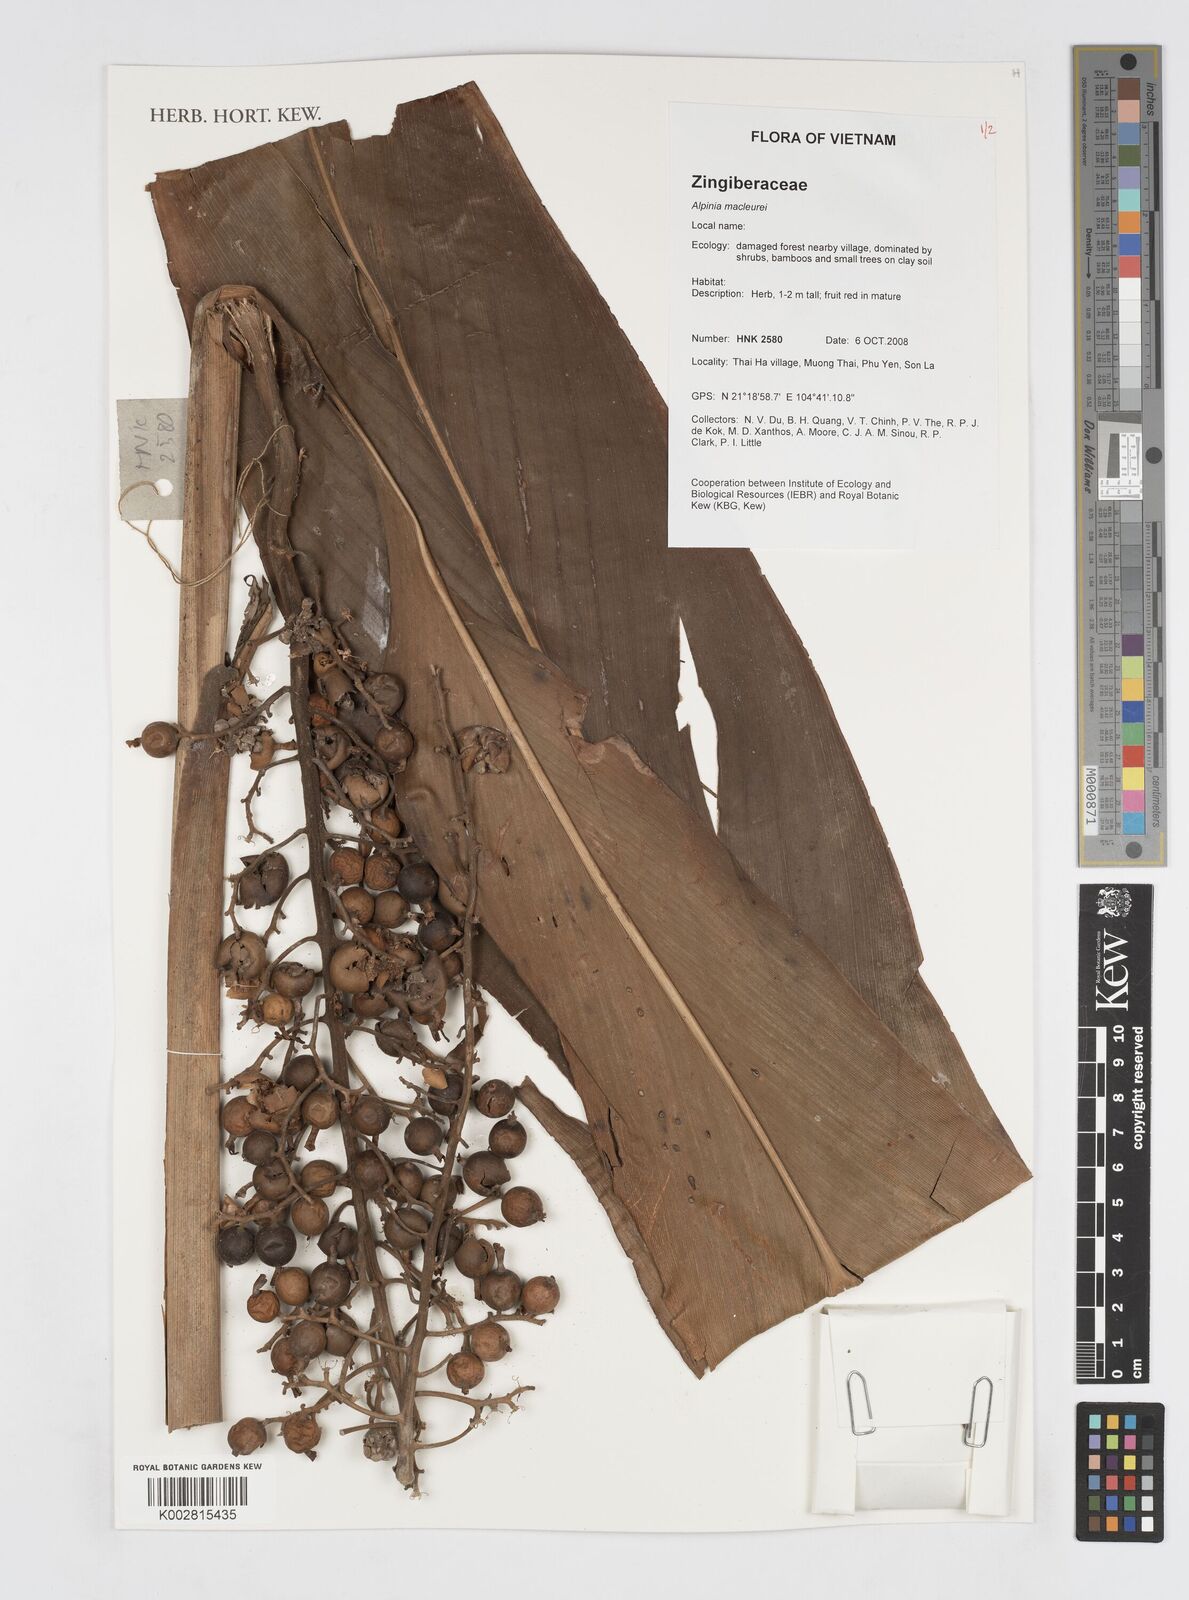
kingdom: Plantae
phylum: Tracheophyta
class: Liliopsida
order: Zingiberales
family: Zingiberaceae
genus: Alpinia
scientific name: Alpinia maclurei
